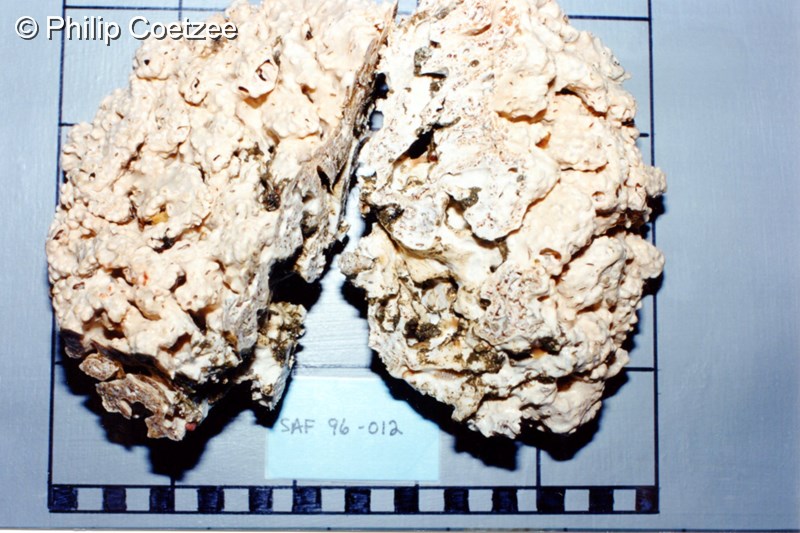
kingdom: Animalia
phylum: Chordata
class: Ascidiacea
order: Aplousobranchia
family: Didemnidae
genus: Trididemnum
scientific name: Trididemnum
